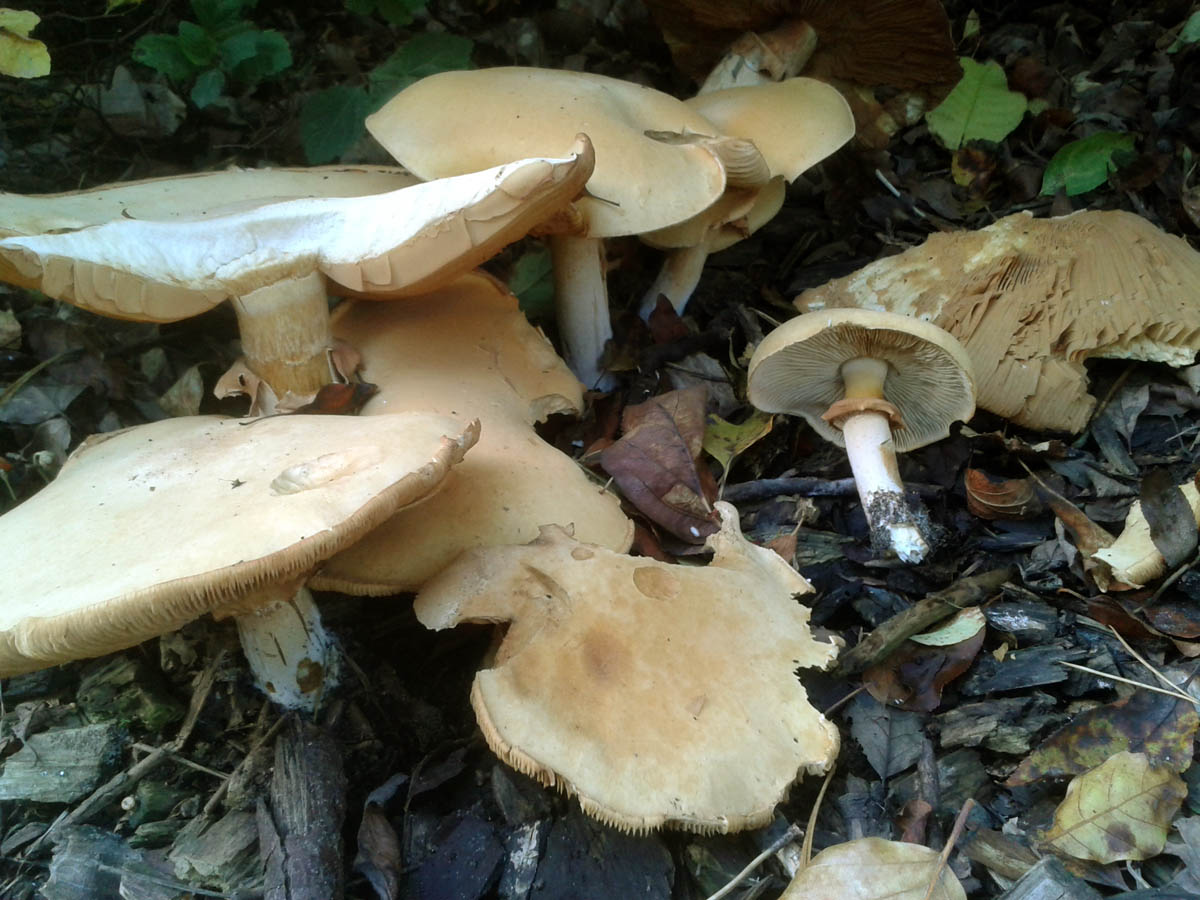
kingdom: Fungi
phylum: Basidiomycota
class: Agaricomycetes
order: Agaricales
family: Tricholomataceae
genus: Phaeolepiota
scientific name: Phaeolepiota aurea
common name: gyldenhat
